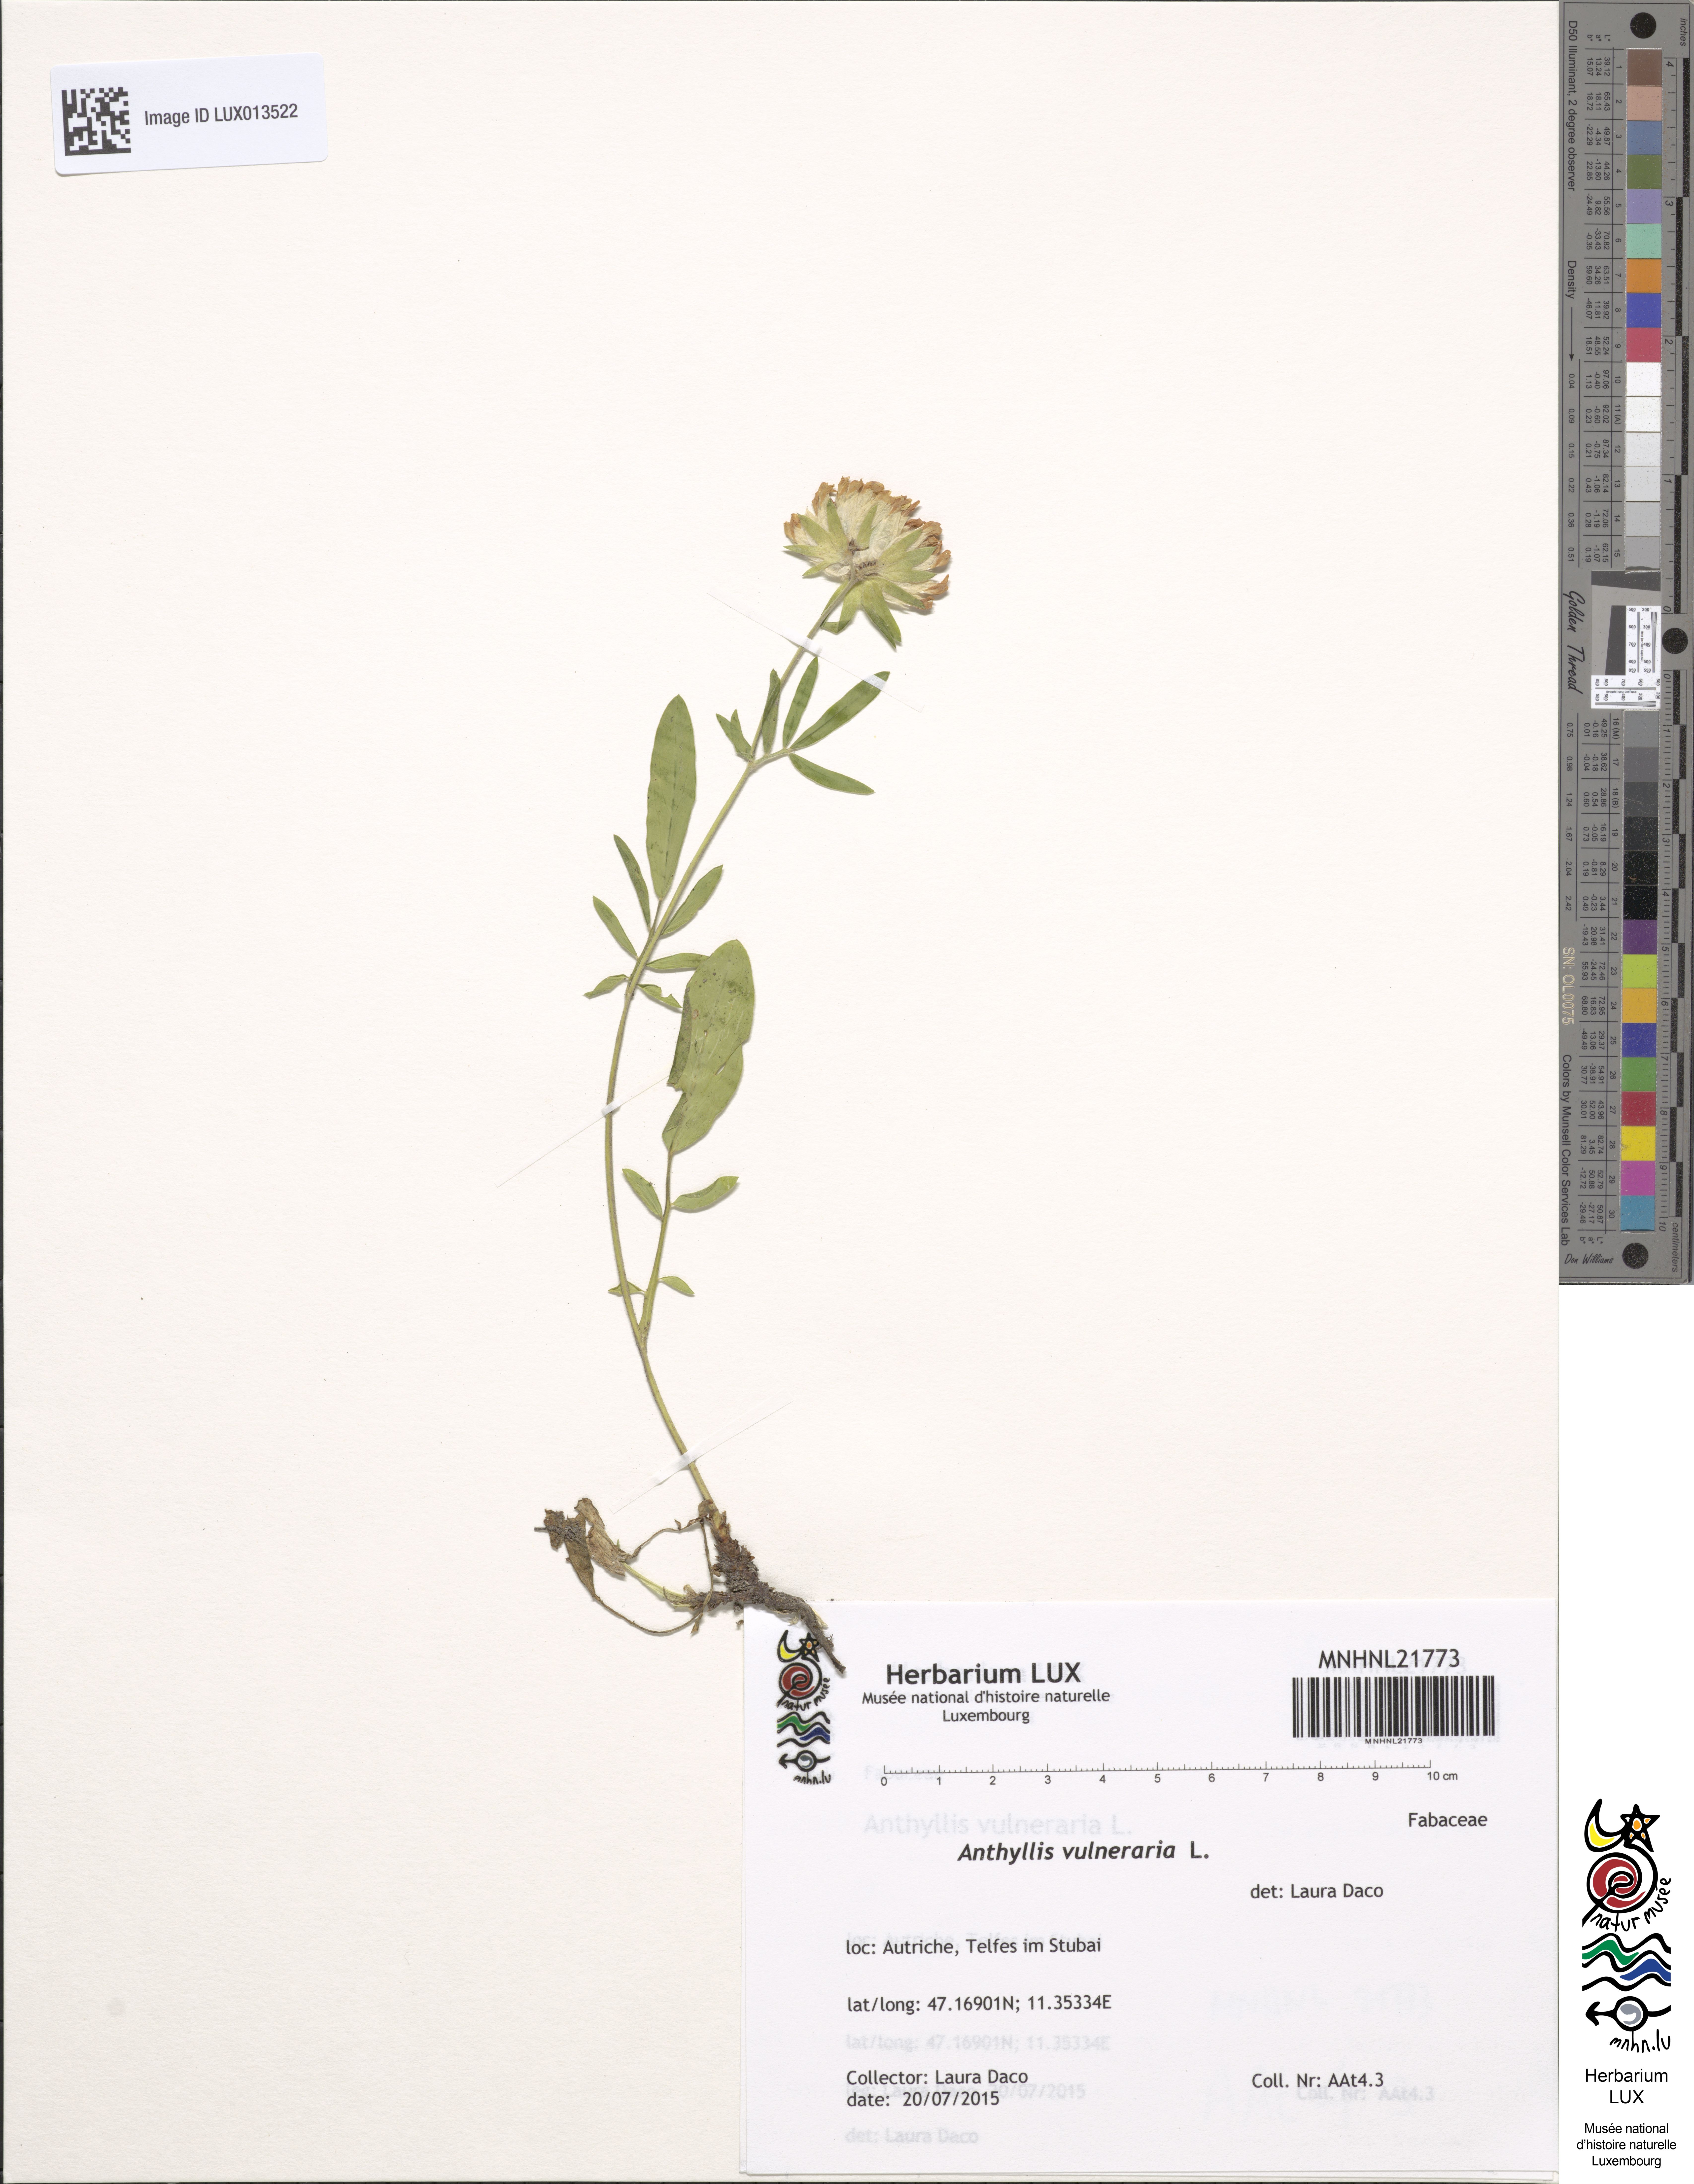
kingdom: Plantae
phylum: Tracheophyta
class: Magnoliopsida
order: Fabales
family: Fabaceae
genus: Anthyllis
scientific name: Anthyllis vulneraria
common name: Kidney vetch
